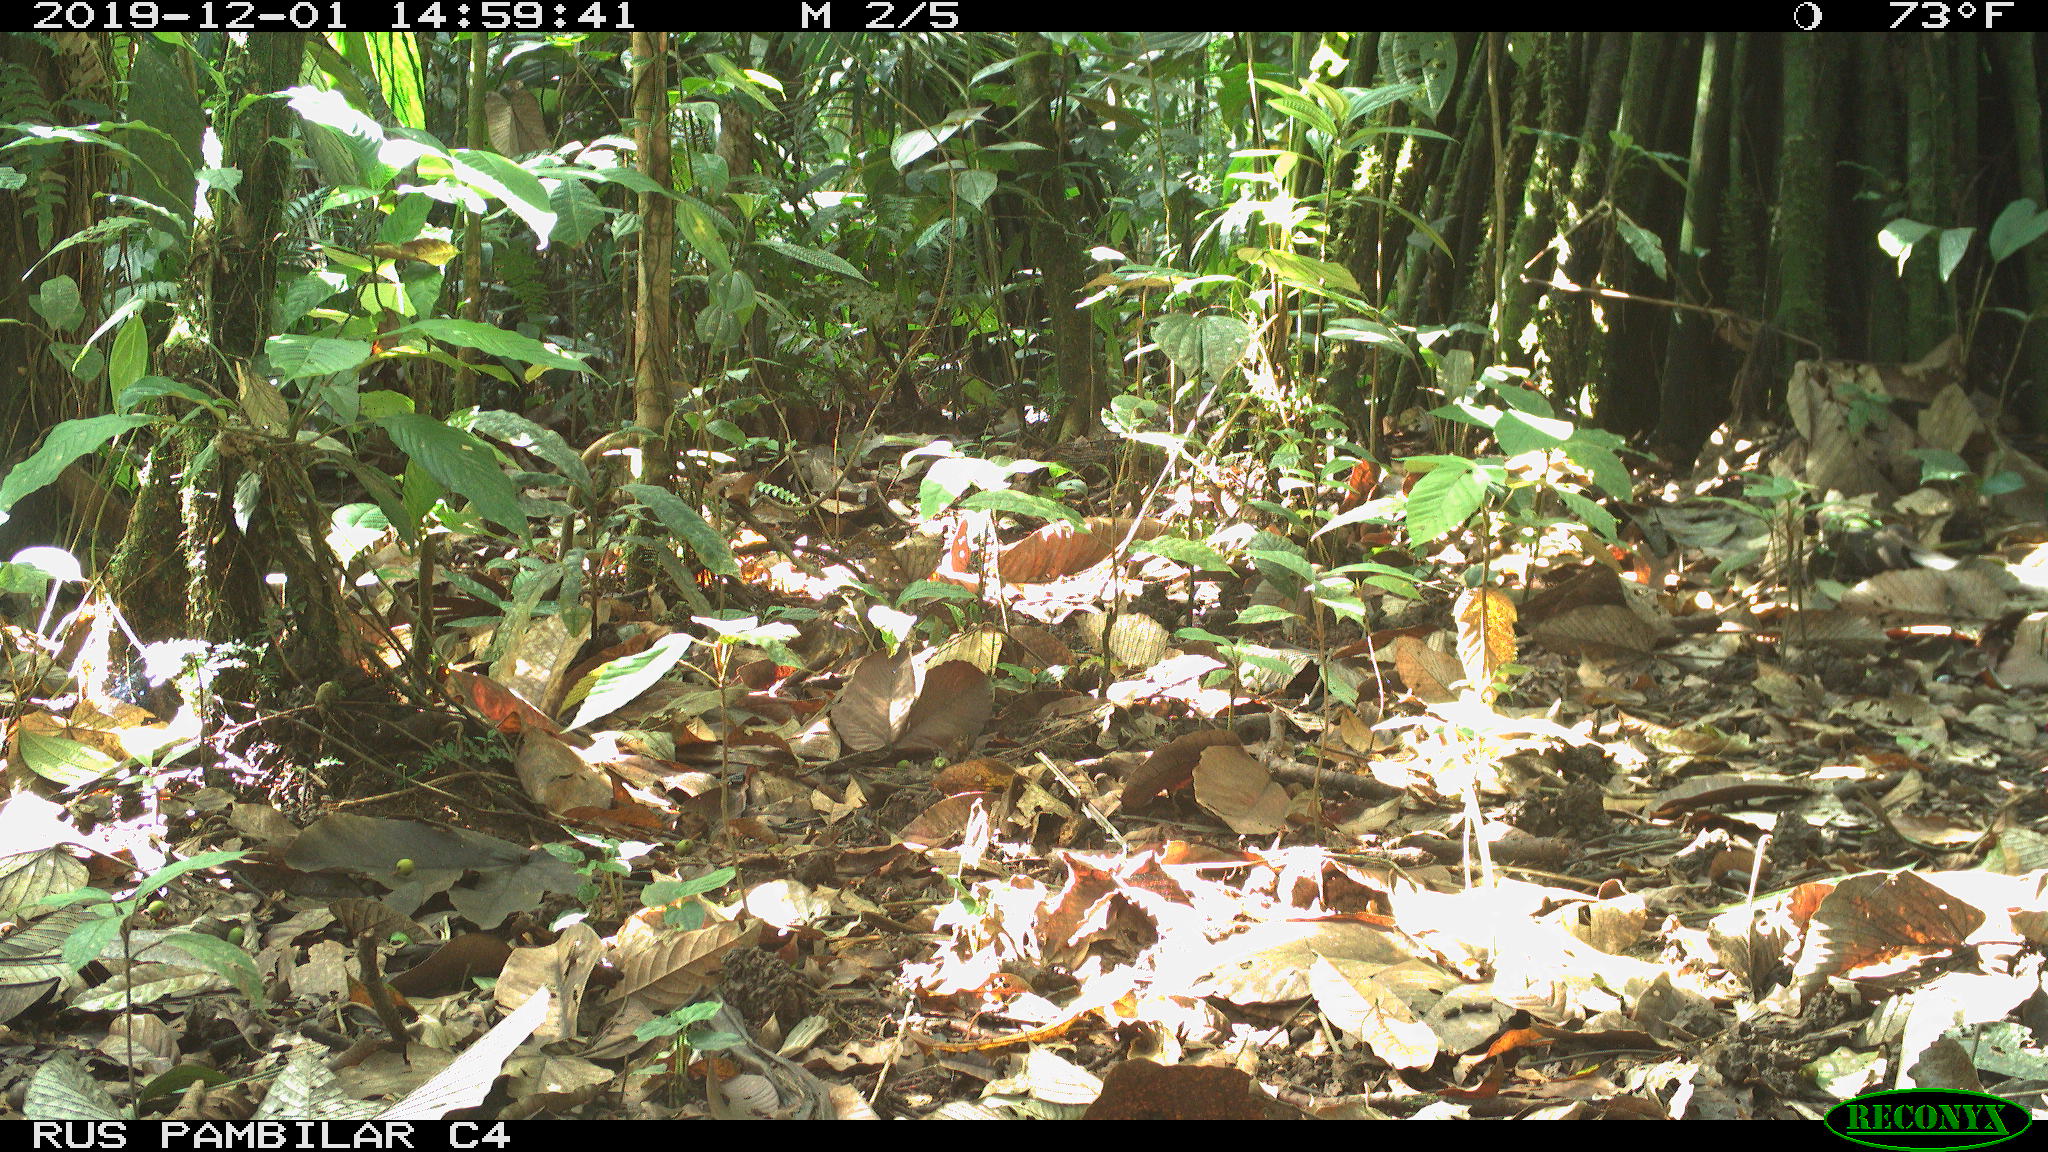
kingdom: Animalia
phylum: Chordata
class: Mammalia
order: Rodentia
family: Dasyproctidae
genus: Dasyprocta
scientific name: Dasyprocta punctata
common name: Central american agouti
